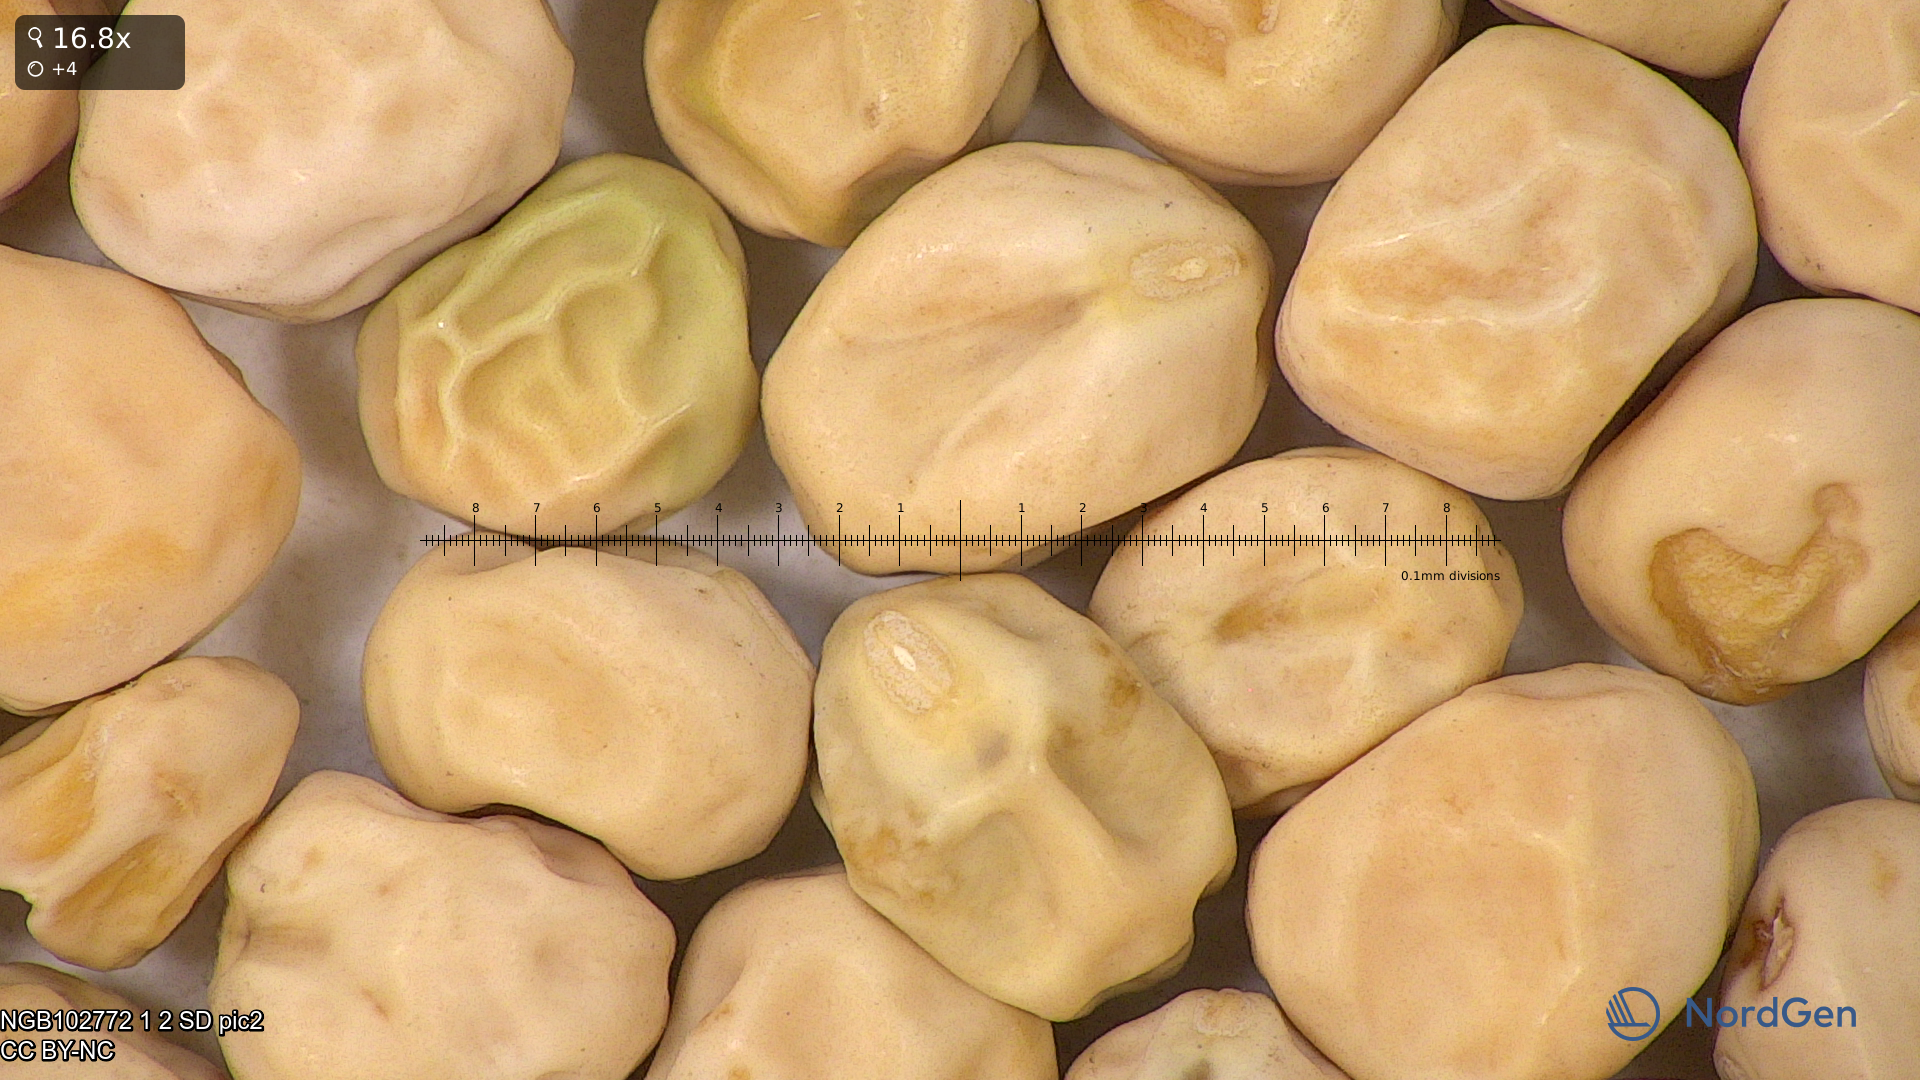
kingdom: Plantae
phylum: Tracheophyta
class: Magnoliopsida
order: Fabales
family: Fabaceae
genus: Lathyrus
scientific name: Lathyrus oleraceus
